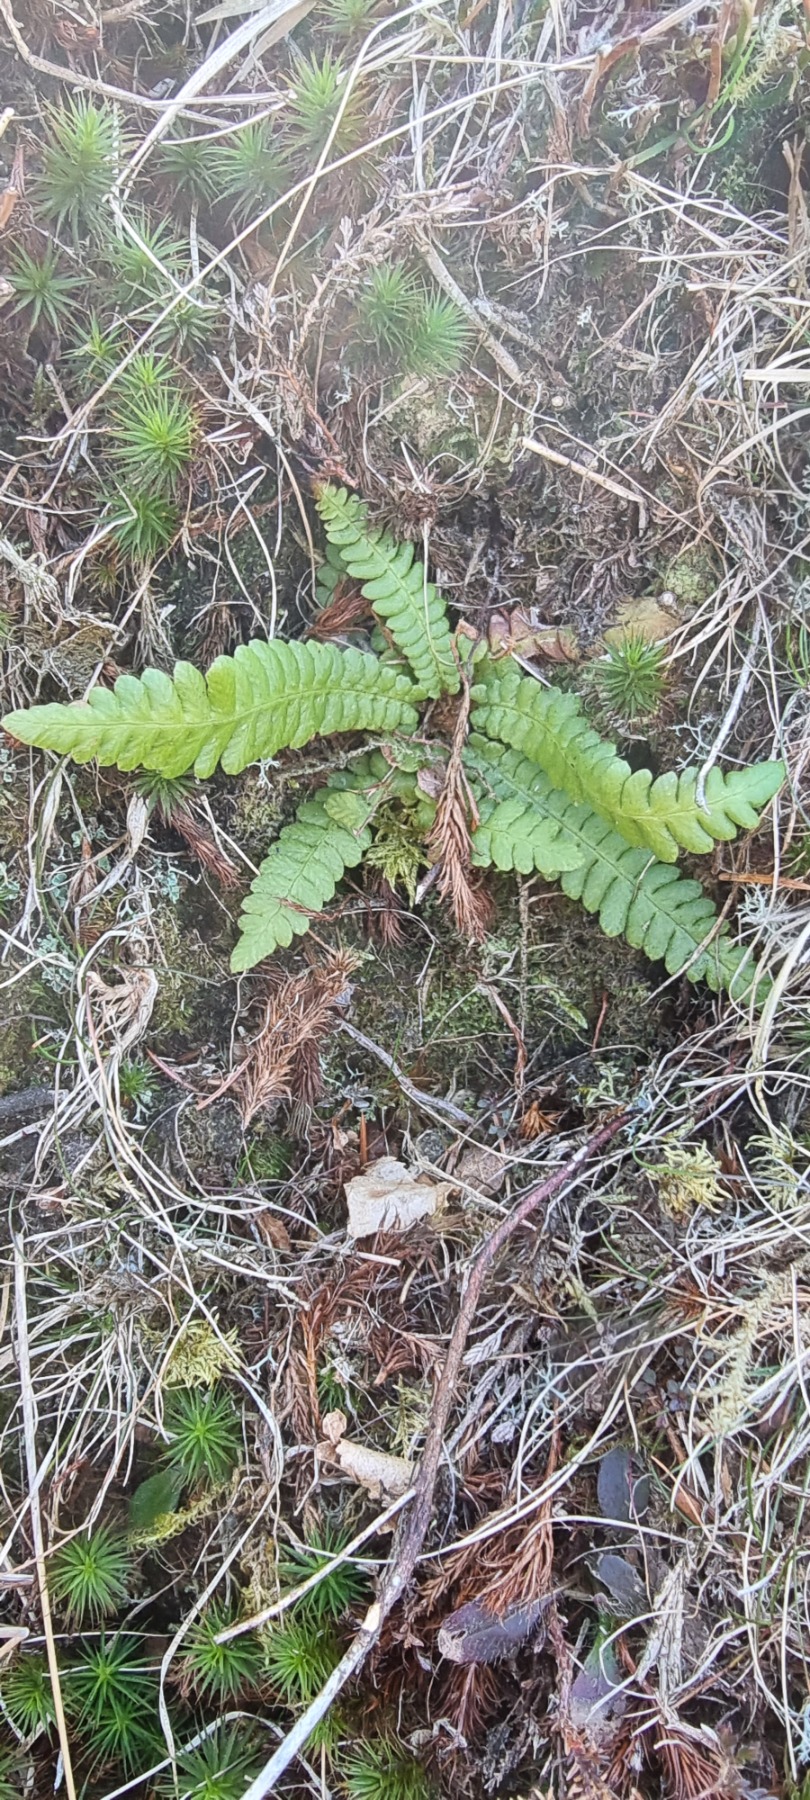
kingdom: Plantae
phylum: Tracheophyta
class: Polypodiopsida
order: Polypodiales
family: Blechnaceae
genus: Struthiopteris
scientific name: Struthiopteris spicant
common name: Kambregne
